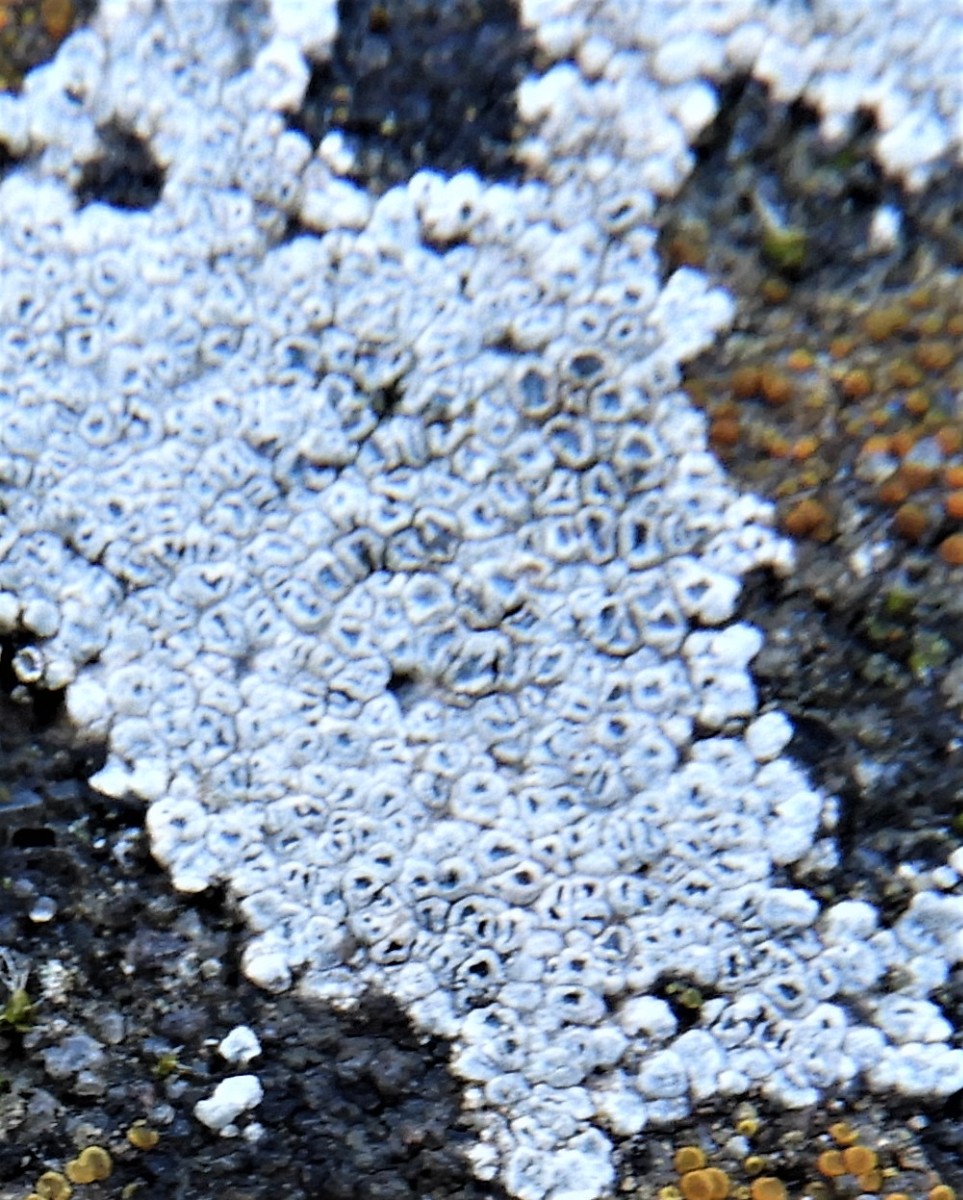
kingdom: Fungi
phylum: Ascomycota
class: Lecanoromycetes
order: Pertusariales
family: Megasporaceae
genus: Circinaria
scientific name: Circinaria contorta
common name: indviklet hulskivelav
